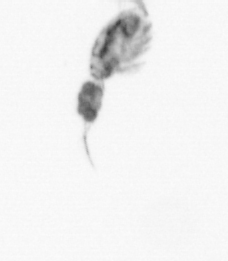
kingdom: Animalia
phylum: Arthropoda
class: Copepoda
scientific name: Copepoda
